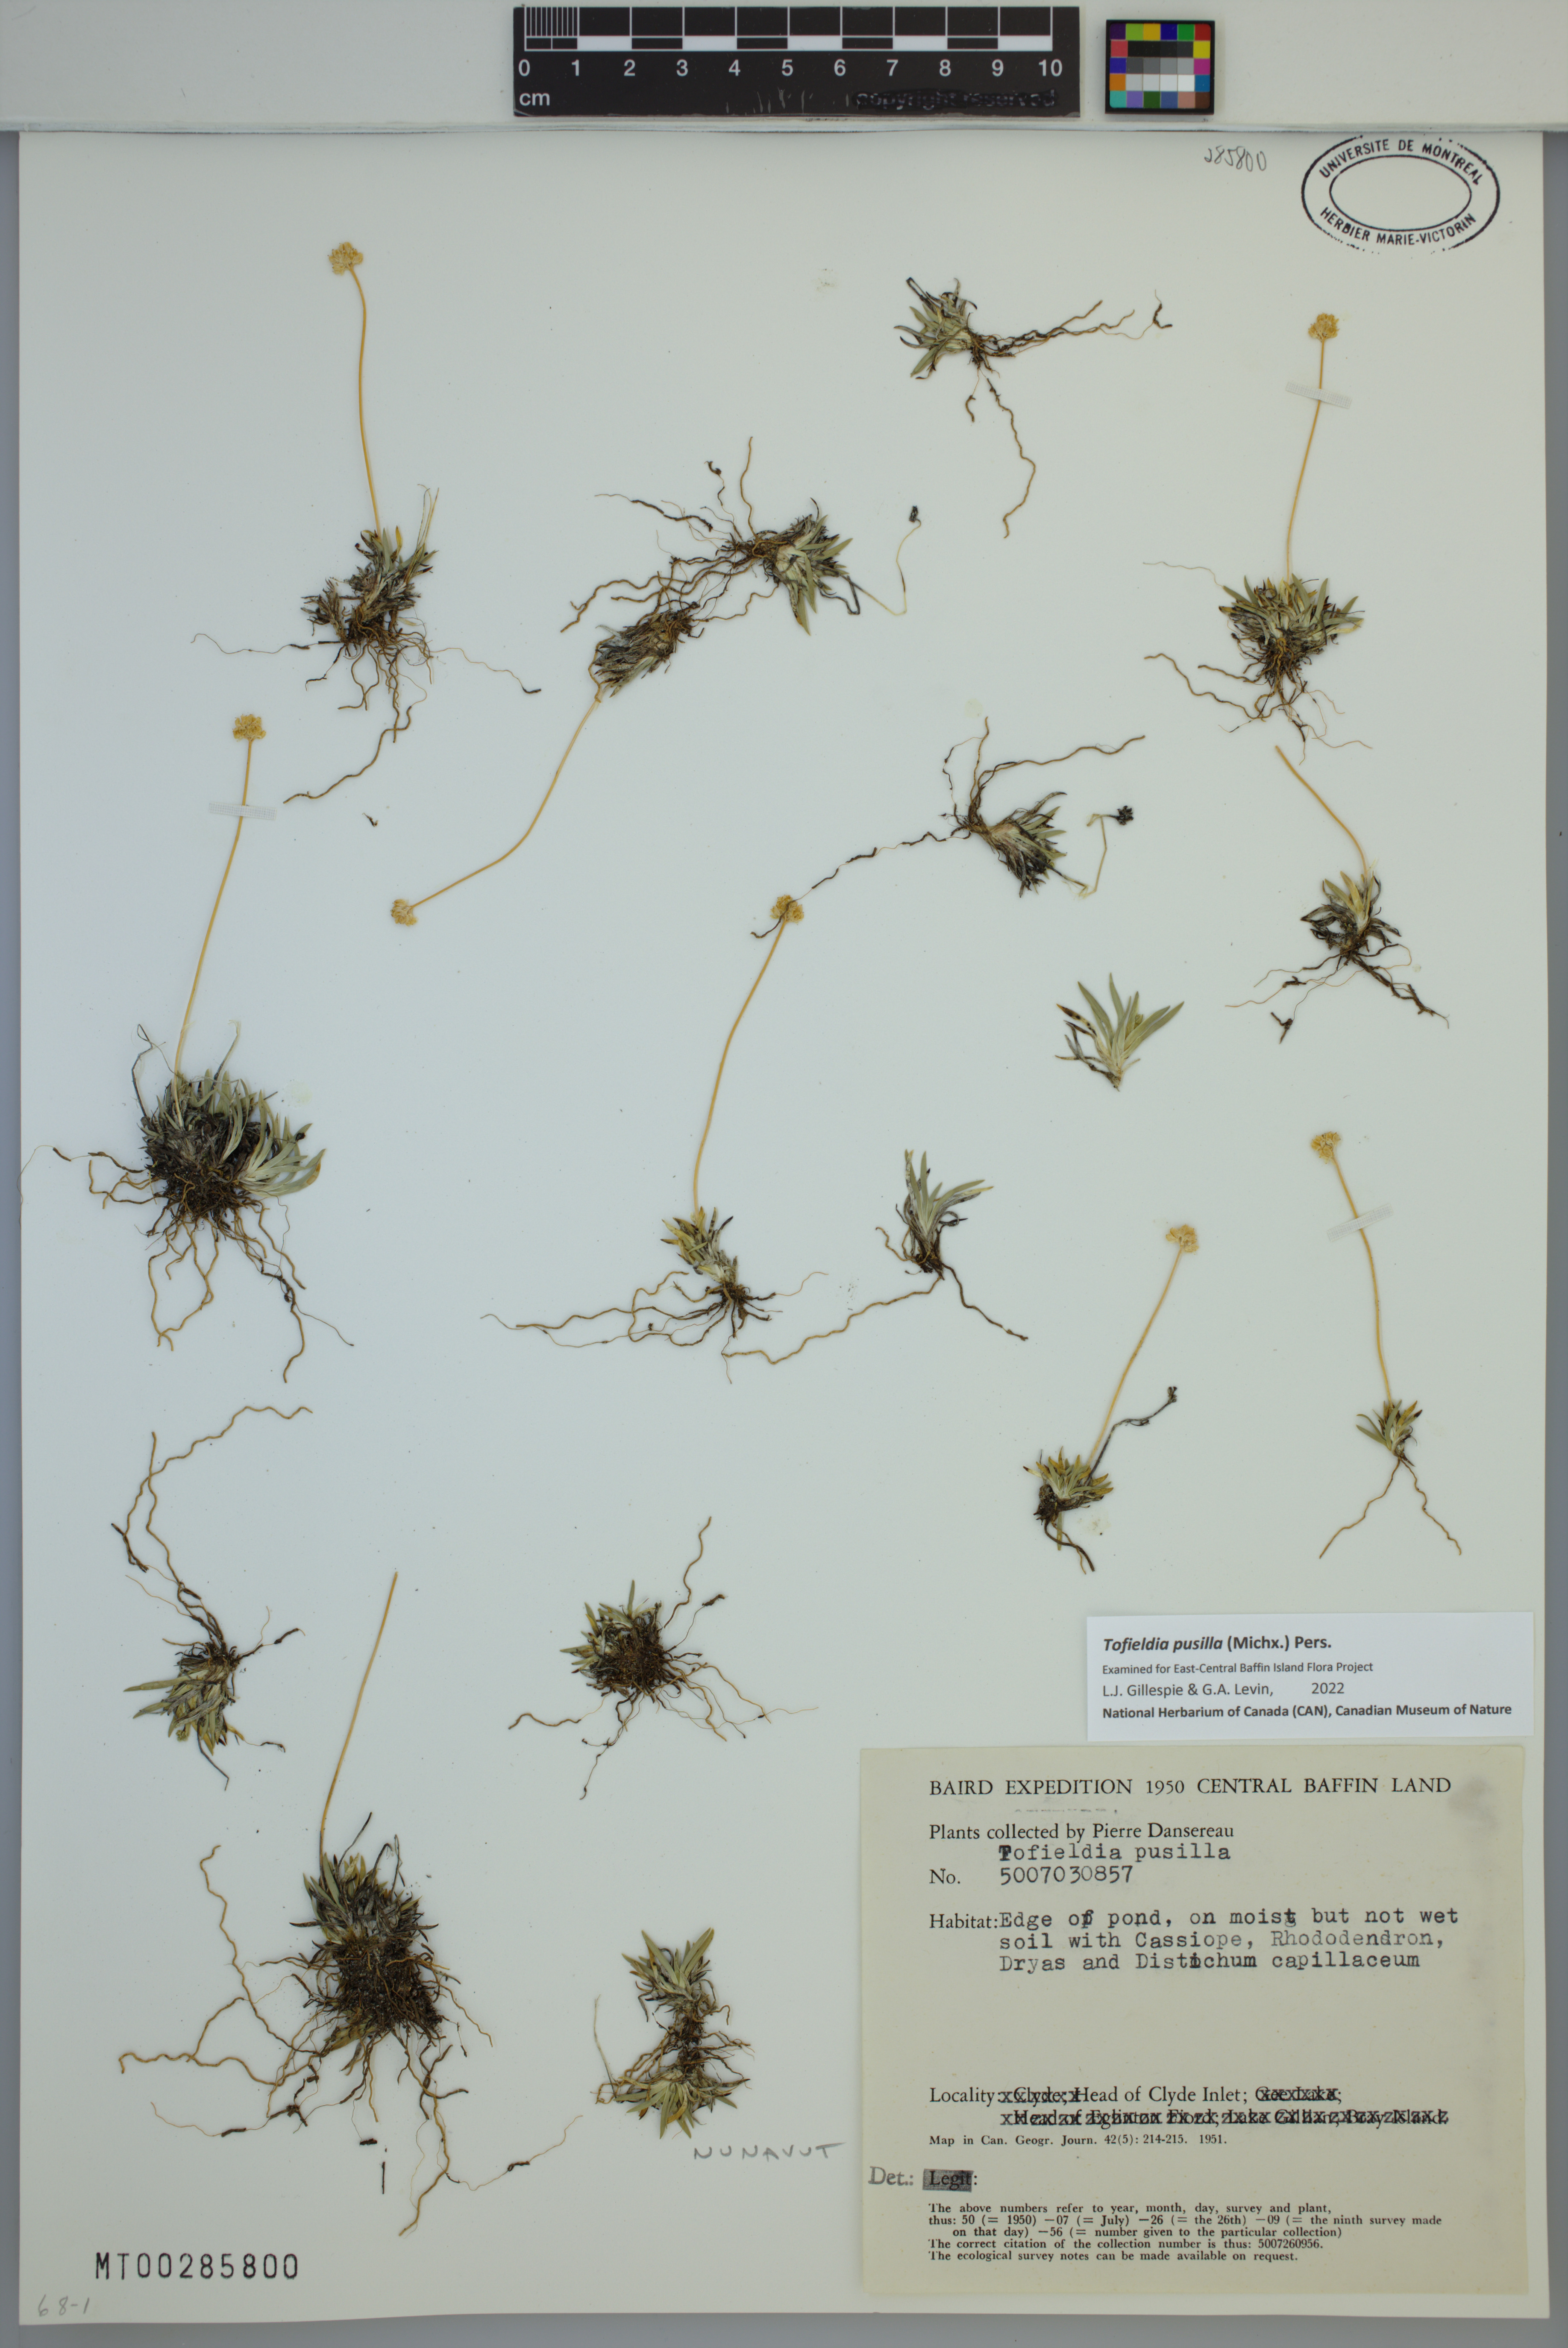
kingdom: Plantae
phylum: Tracheophyta
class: Liliopsida
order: Alismatales
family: Tofieldiaceae
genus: Tofieldia
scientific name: Tofieldia pusilla
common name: Scottish false asphodel
